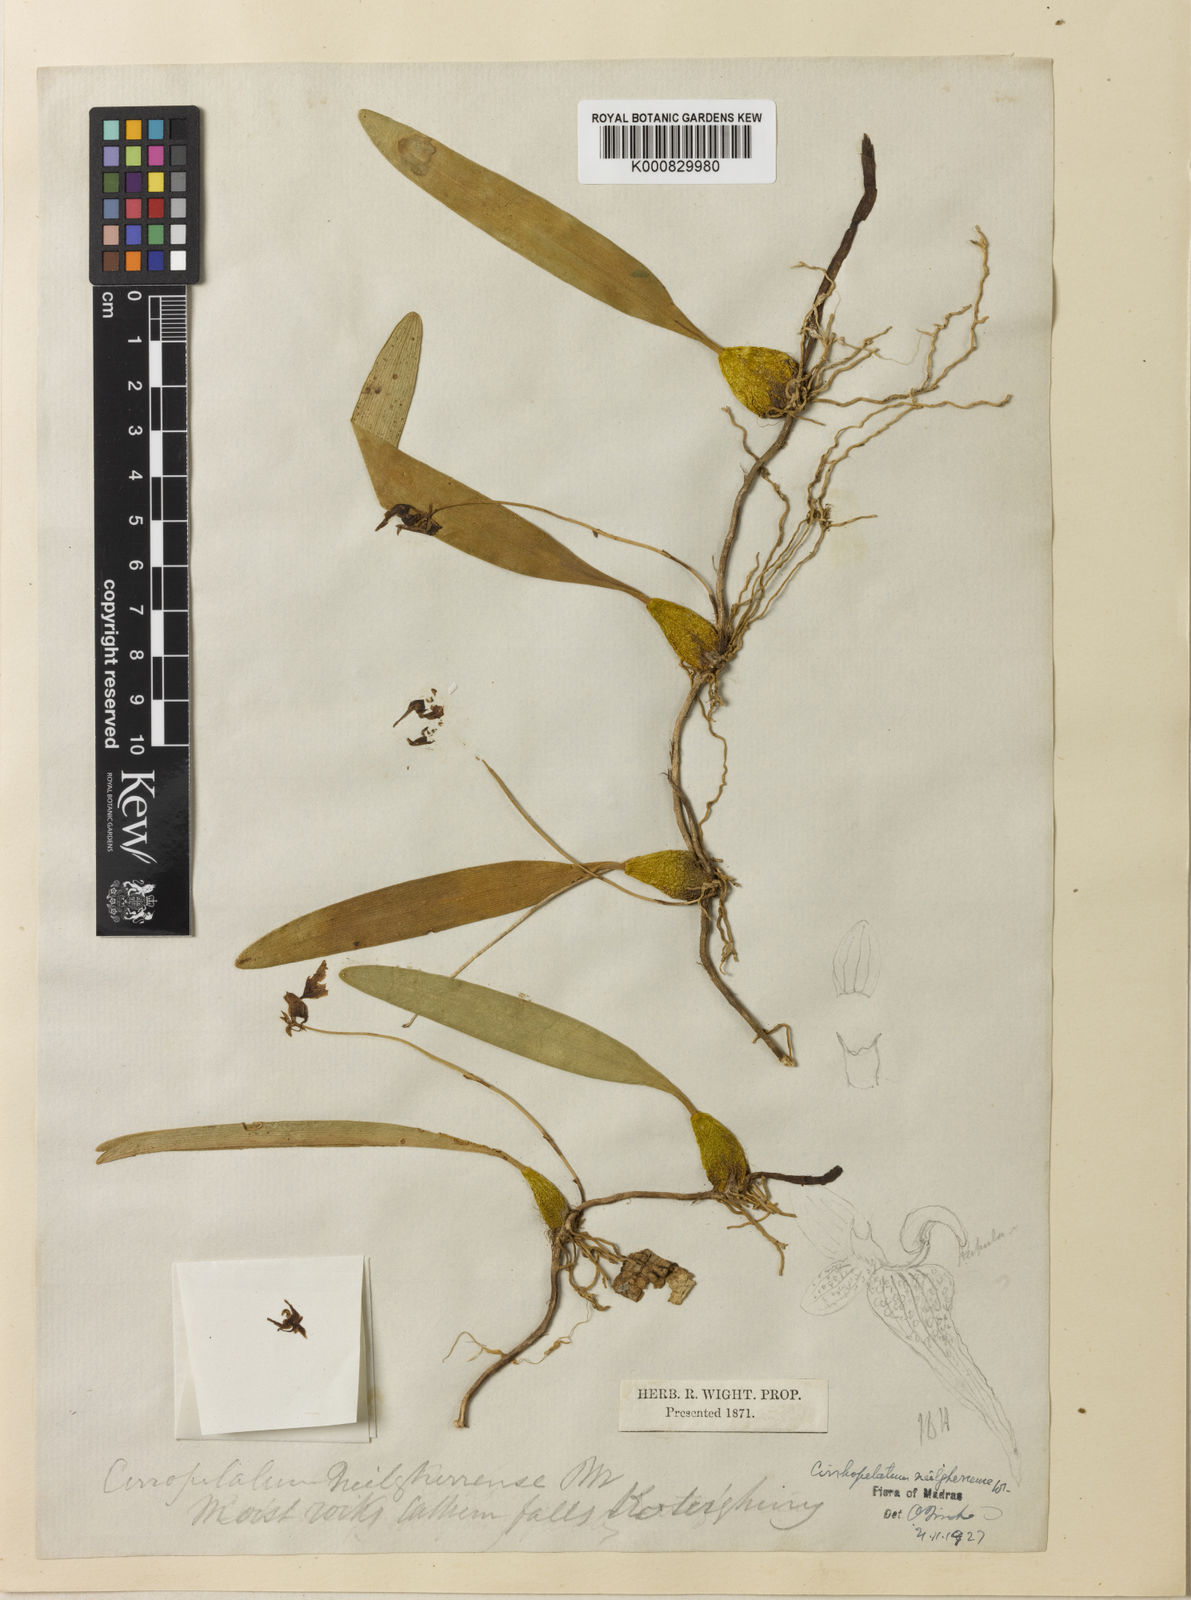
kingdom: Plantae
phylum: Tracheophyta
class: Liliopsida
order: Asparagales
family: Orchidaceae
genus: Bulbophyllum
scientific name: Bulbophyllum kaitiense
